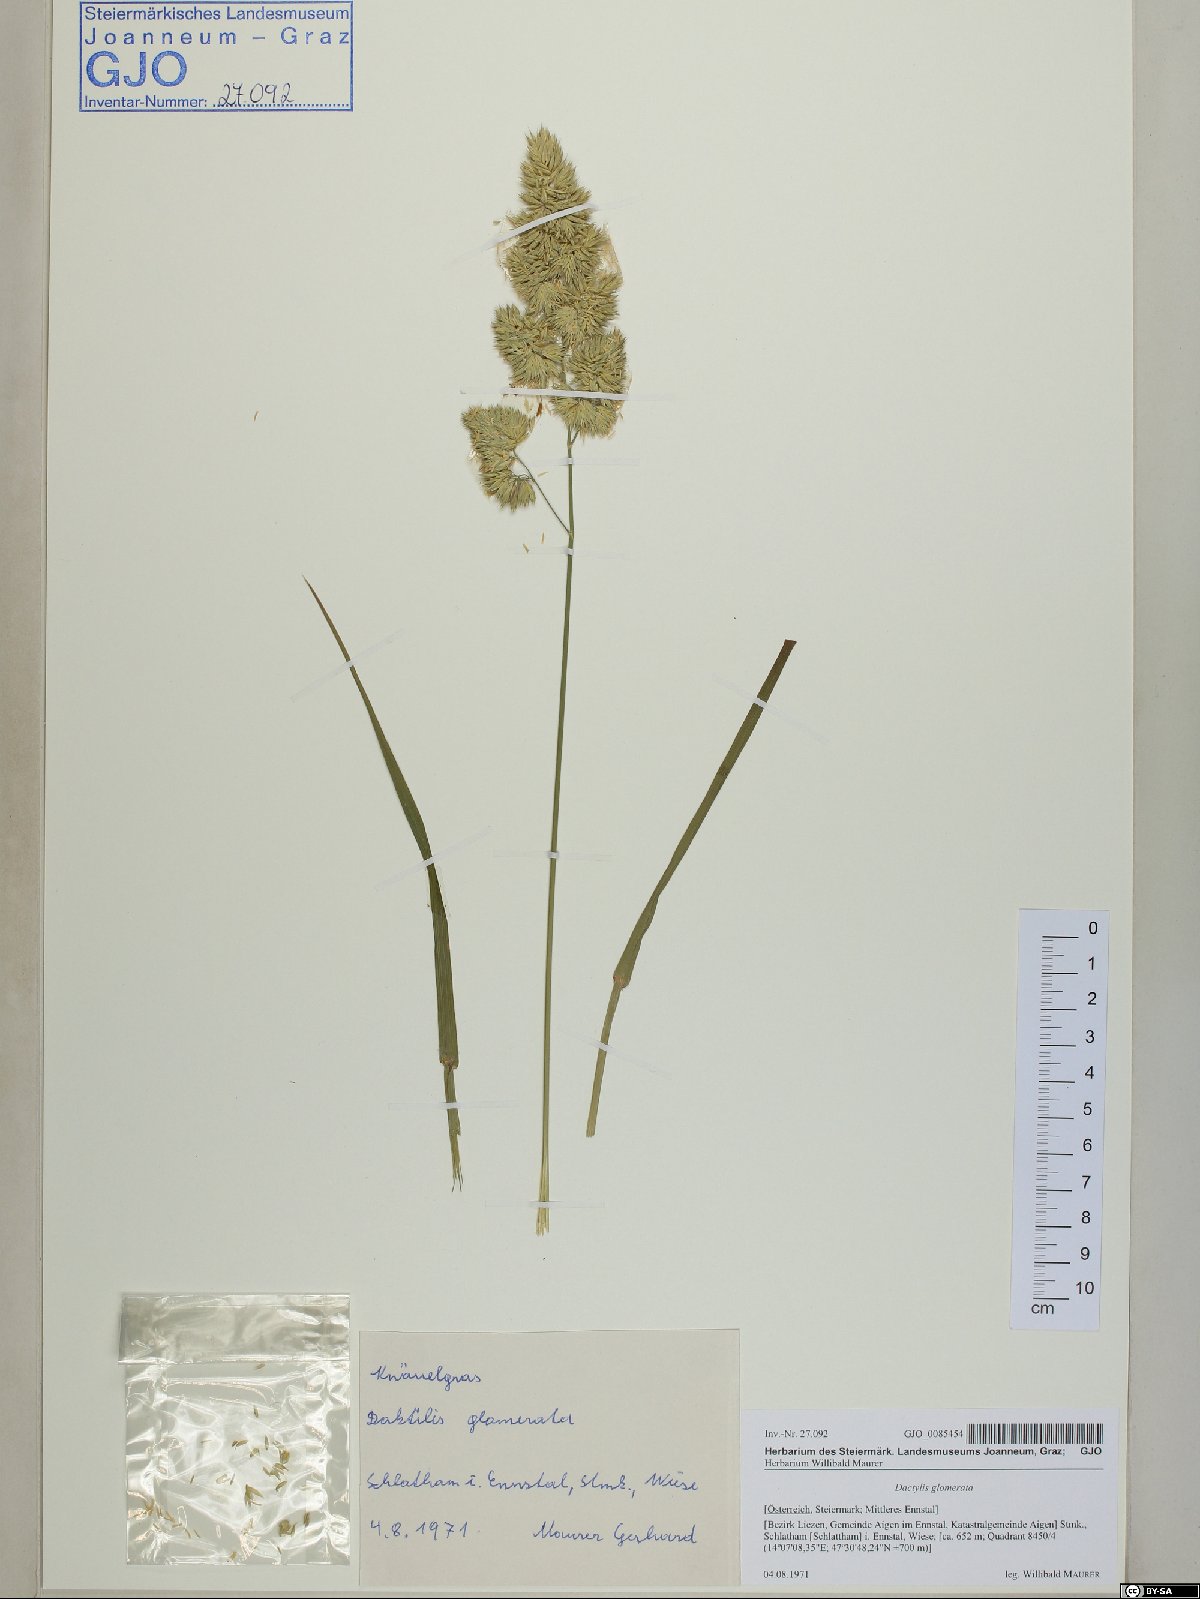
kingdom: Plantae
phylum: Tracheophyta
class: Liliopsida
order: Poales
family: Poaceae
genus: Dactylis
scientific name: Dactylis glomerata
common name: Orchardgrass
